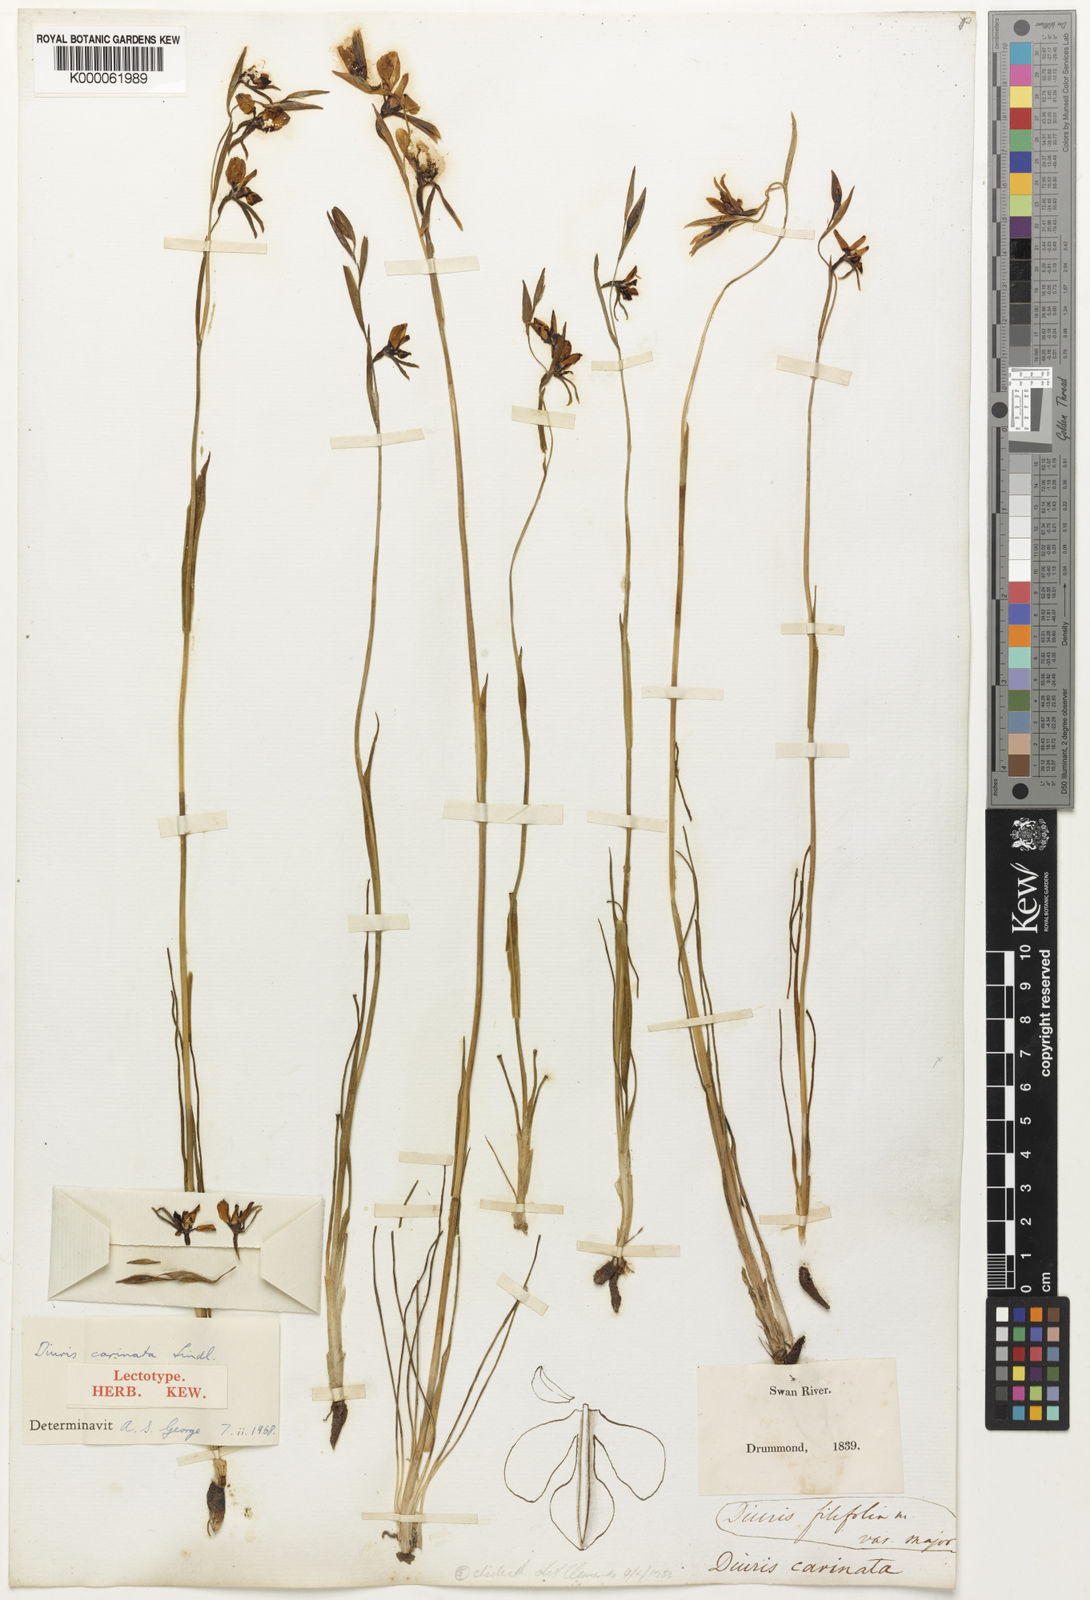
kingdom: Plantae
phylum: Tracheophyta
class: Liliopsida
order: Asparagales
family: Orchidaceae
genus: Diuris
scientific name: Diuris carinata
